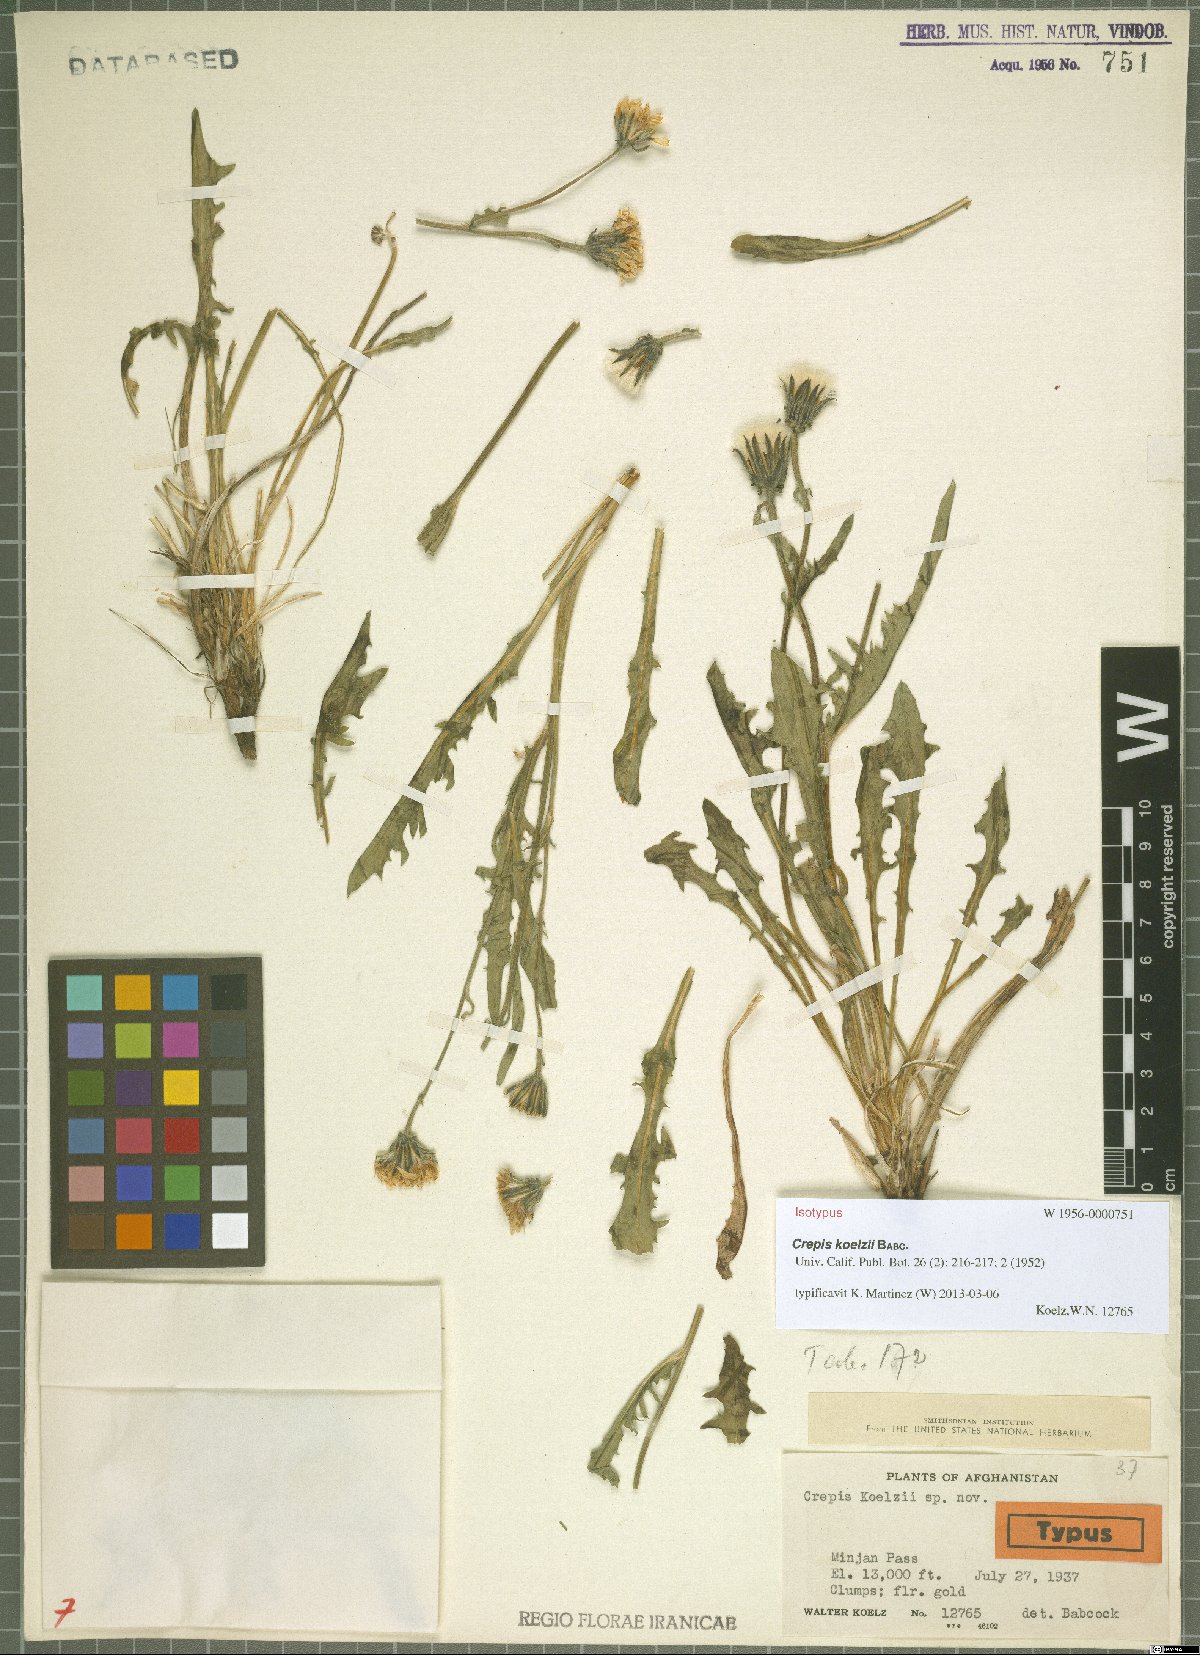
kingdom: Plantae
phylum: Tracheophyta
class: Magnoliopsida
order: Asterales
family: Asteraceae
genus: Crepis
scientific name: Crepis koelzii
